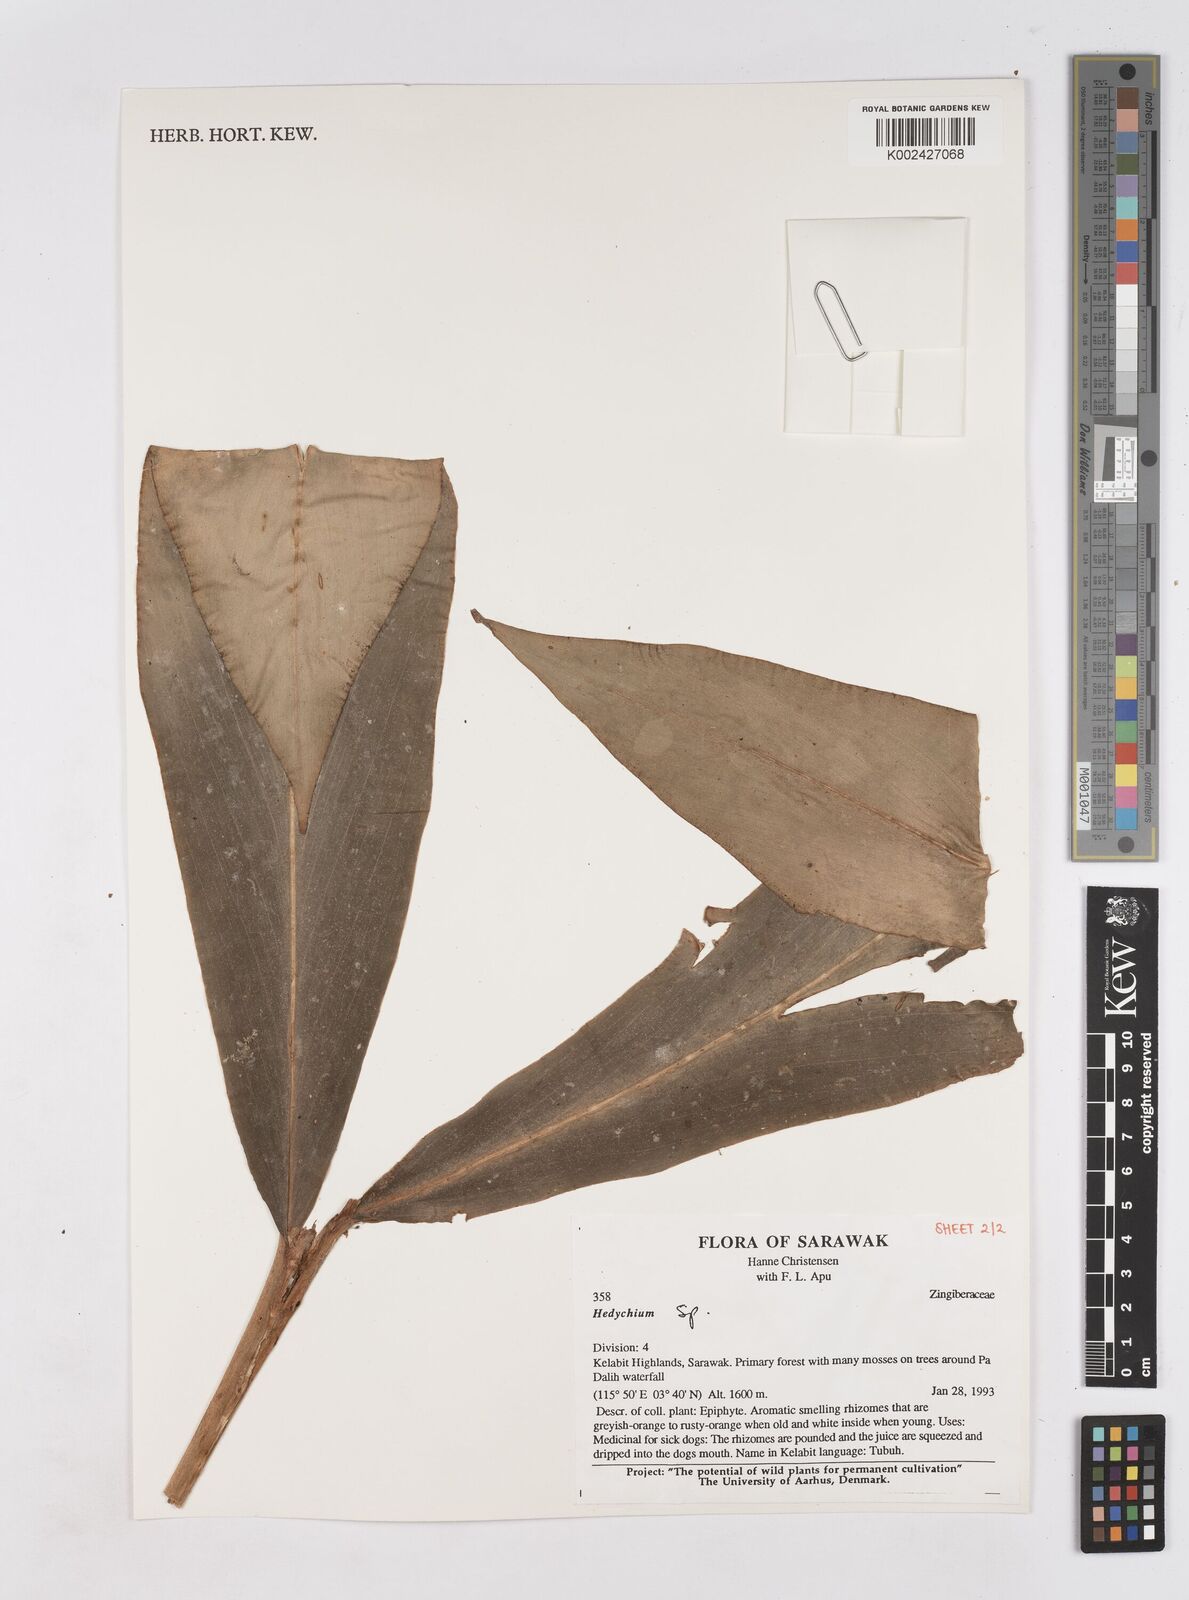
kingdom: Plantae
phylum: Tracheophyta
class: Liliopsida
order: Zingiberales
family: Zingiberaceae
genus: Hedychium
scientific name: Hedychium
